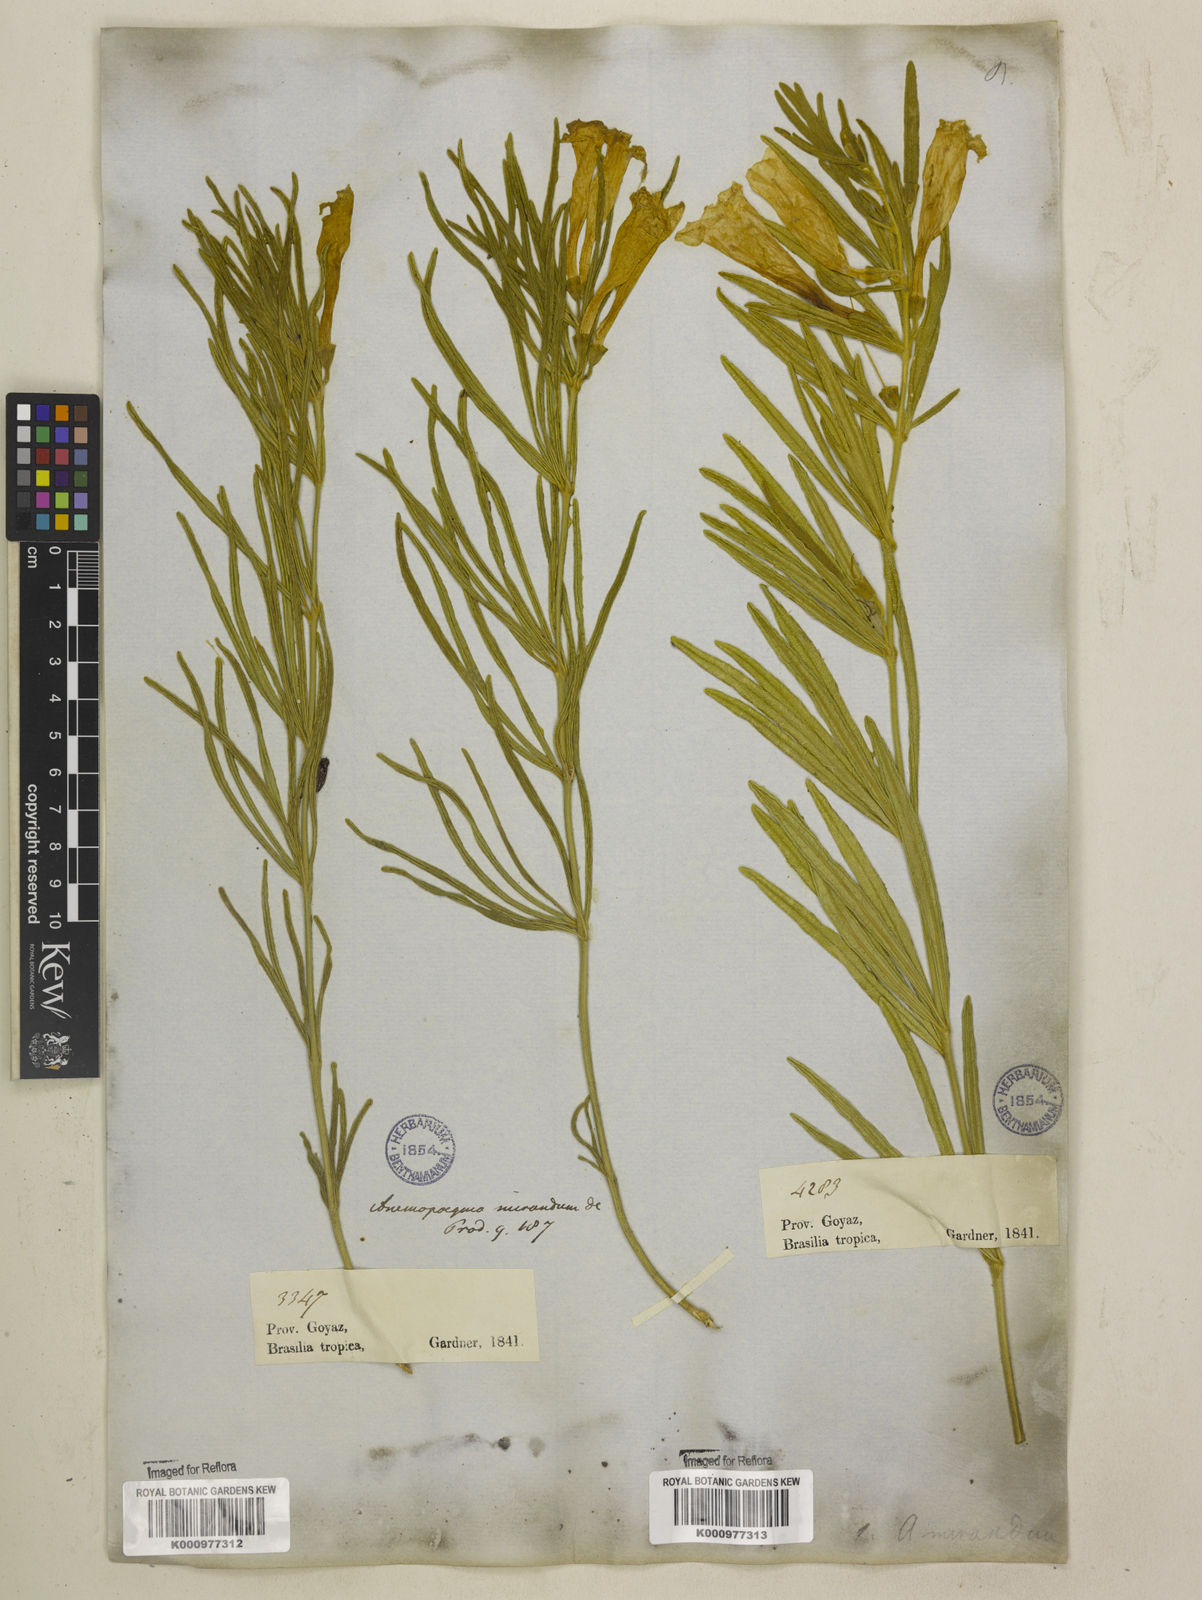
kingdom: Plantae
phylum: Tracheophyta
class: Magnoliopsida
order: Lamiales
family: Bignoniaceae
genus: Anemopaegma
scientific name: Anemopaegma arvense
